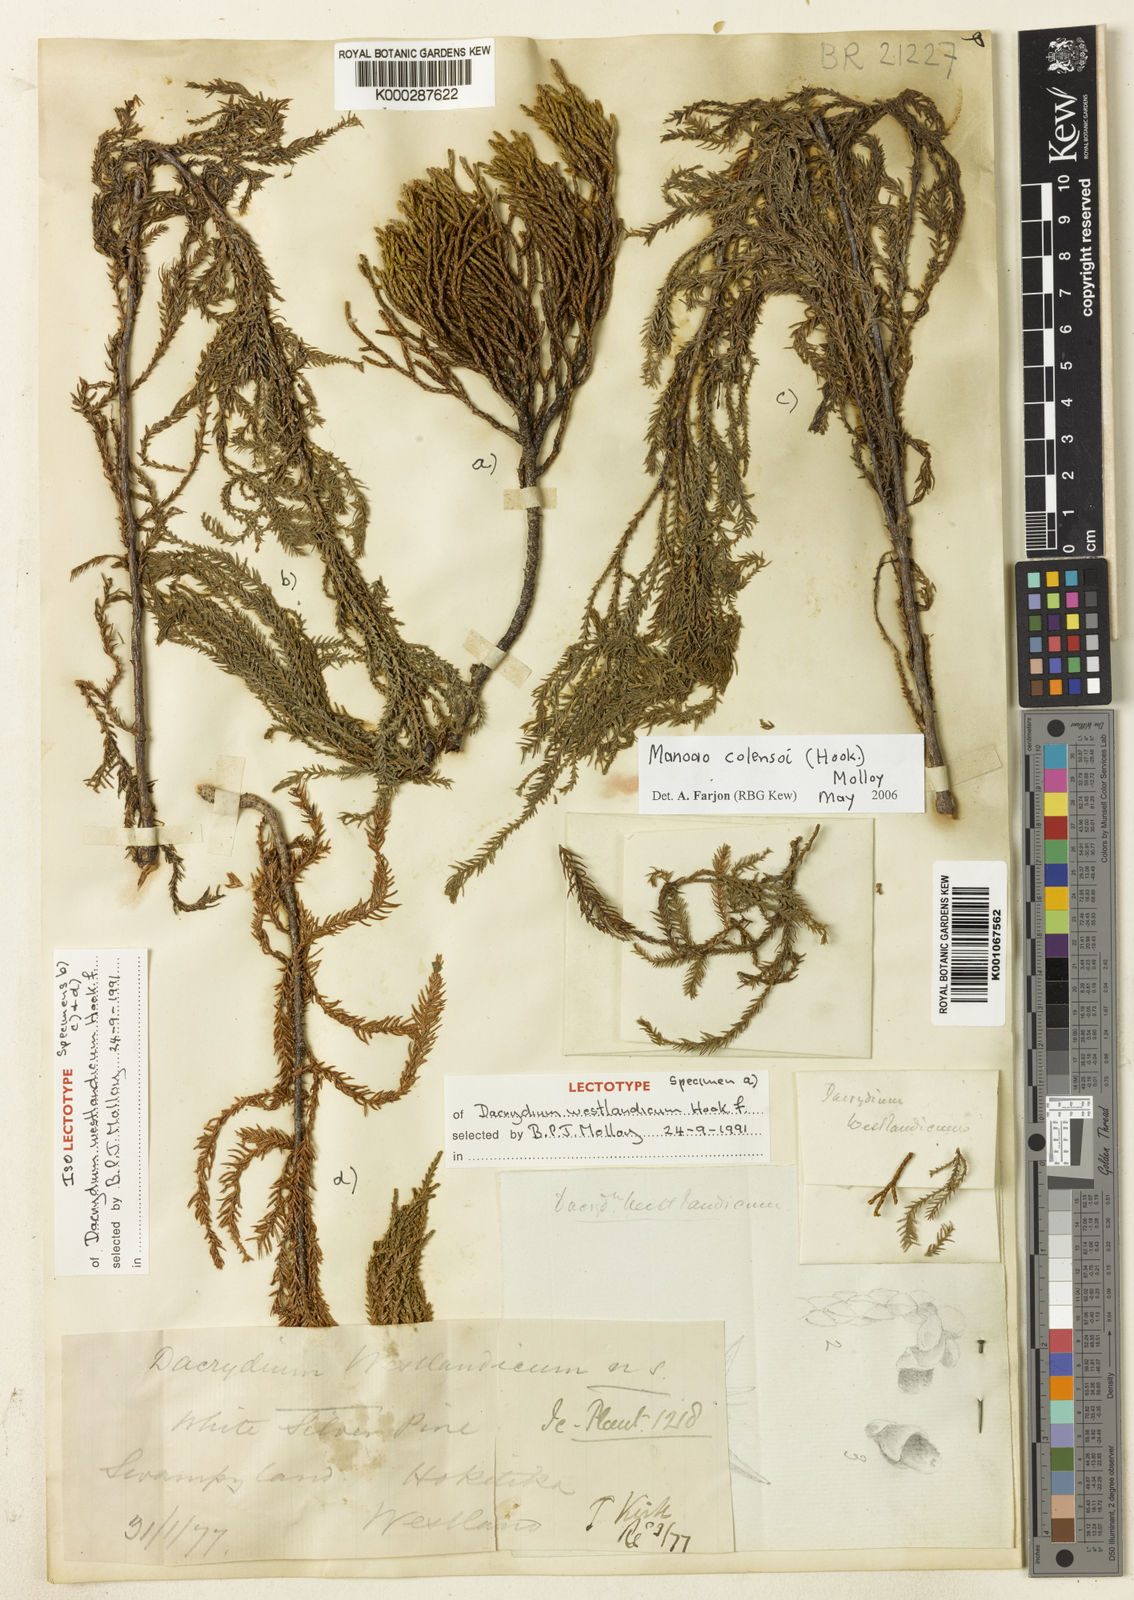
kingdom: Plantae
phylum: Tracheophyta
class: Pinopsida
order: Pinales
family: Podocarpaceae
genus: Manoao
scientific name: Manoao colensoi
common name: Silver pine
